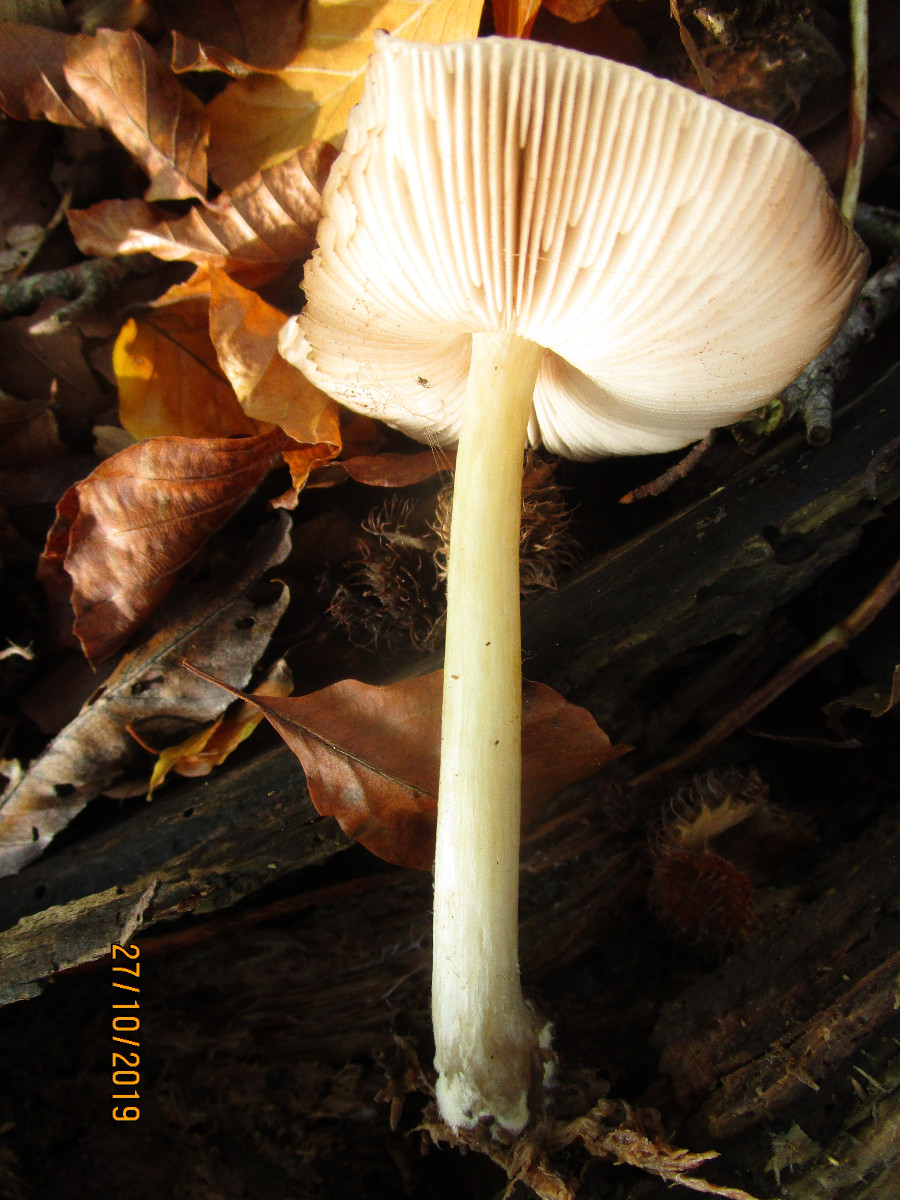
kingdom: Fungi
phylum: Basidiomycota
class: Agaricomycetes
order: Agaricales
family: Pluteaceae
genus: Pluteus
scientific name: Pluteus romellii
